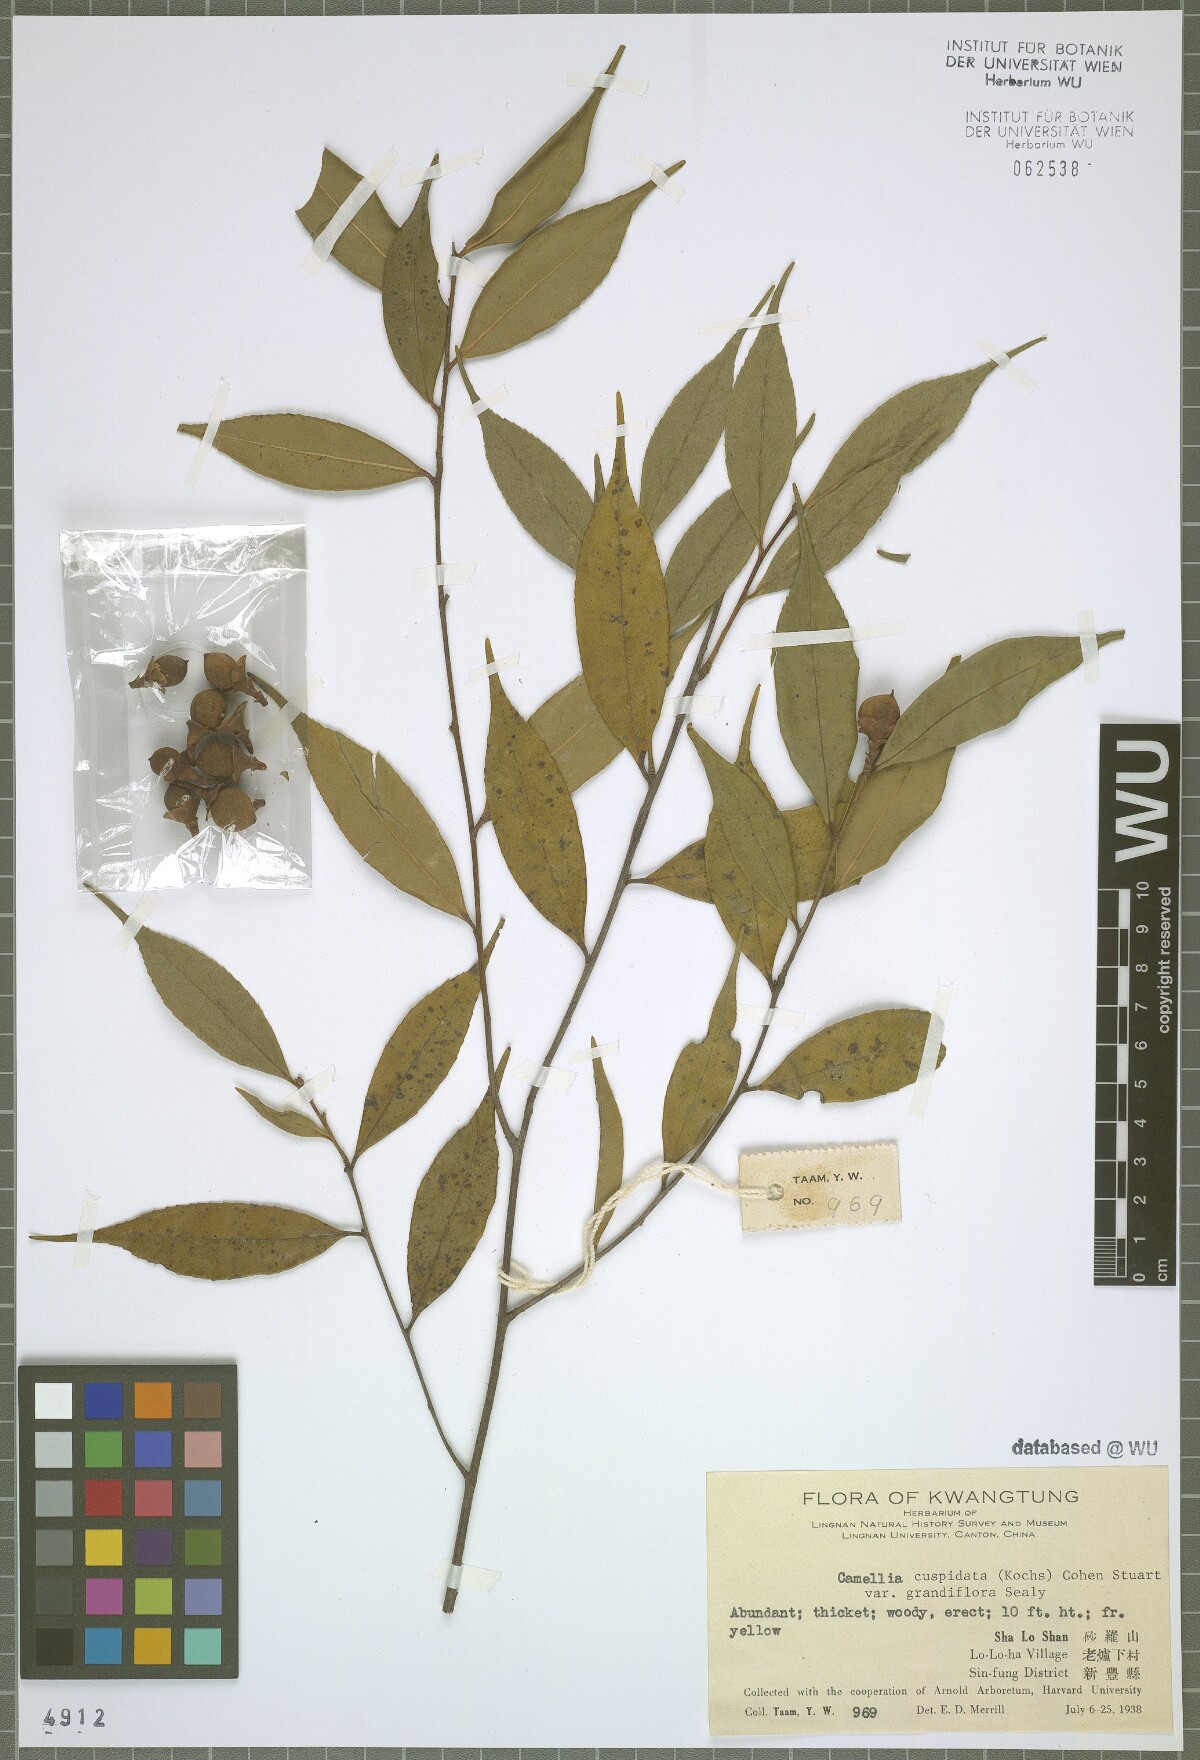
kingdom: Plantae
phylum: Tracheophyta
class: Magnoliopsida
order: Ericales
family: Theaceae
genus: Camellia
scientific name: Camellia cuspidata
